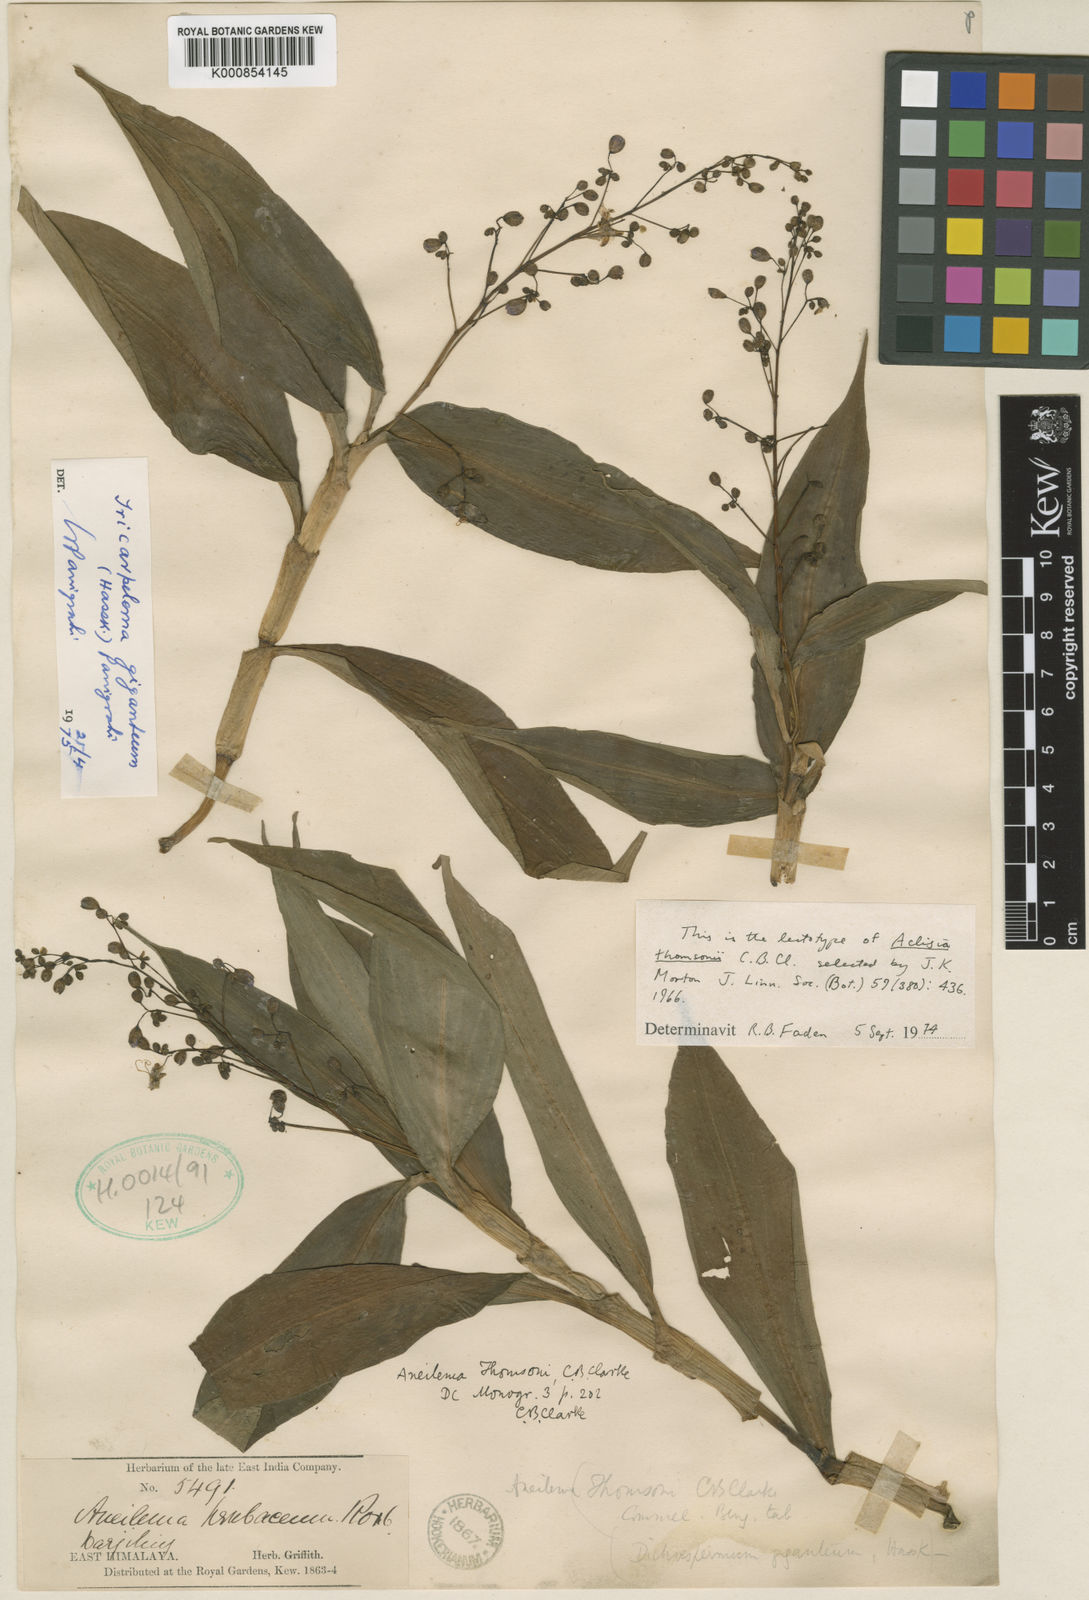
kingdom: Plantae
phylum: Tracheophyta
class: Liliopsida
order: Commelinales
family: Commelinaceae
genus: Tricarpelema
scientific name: Tricarpelema
